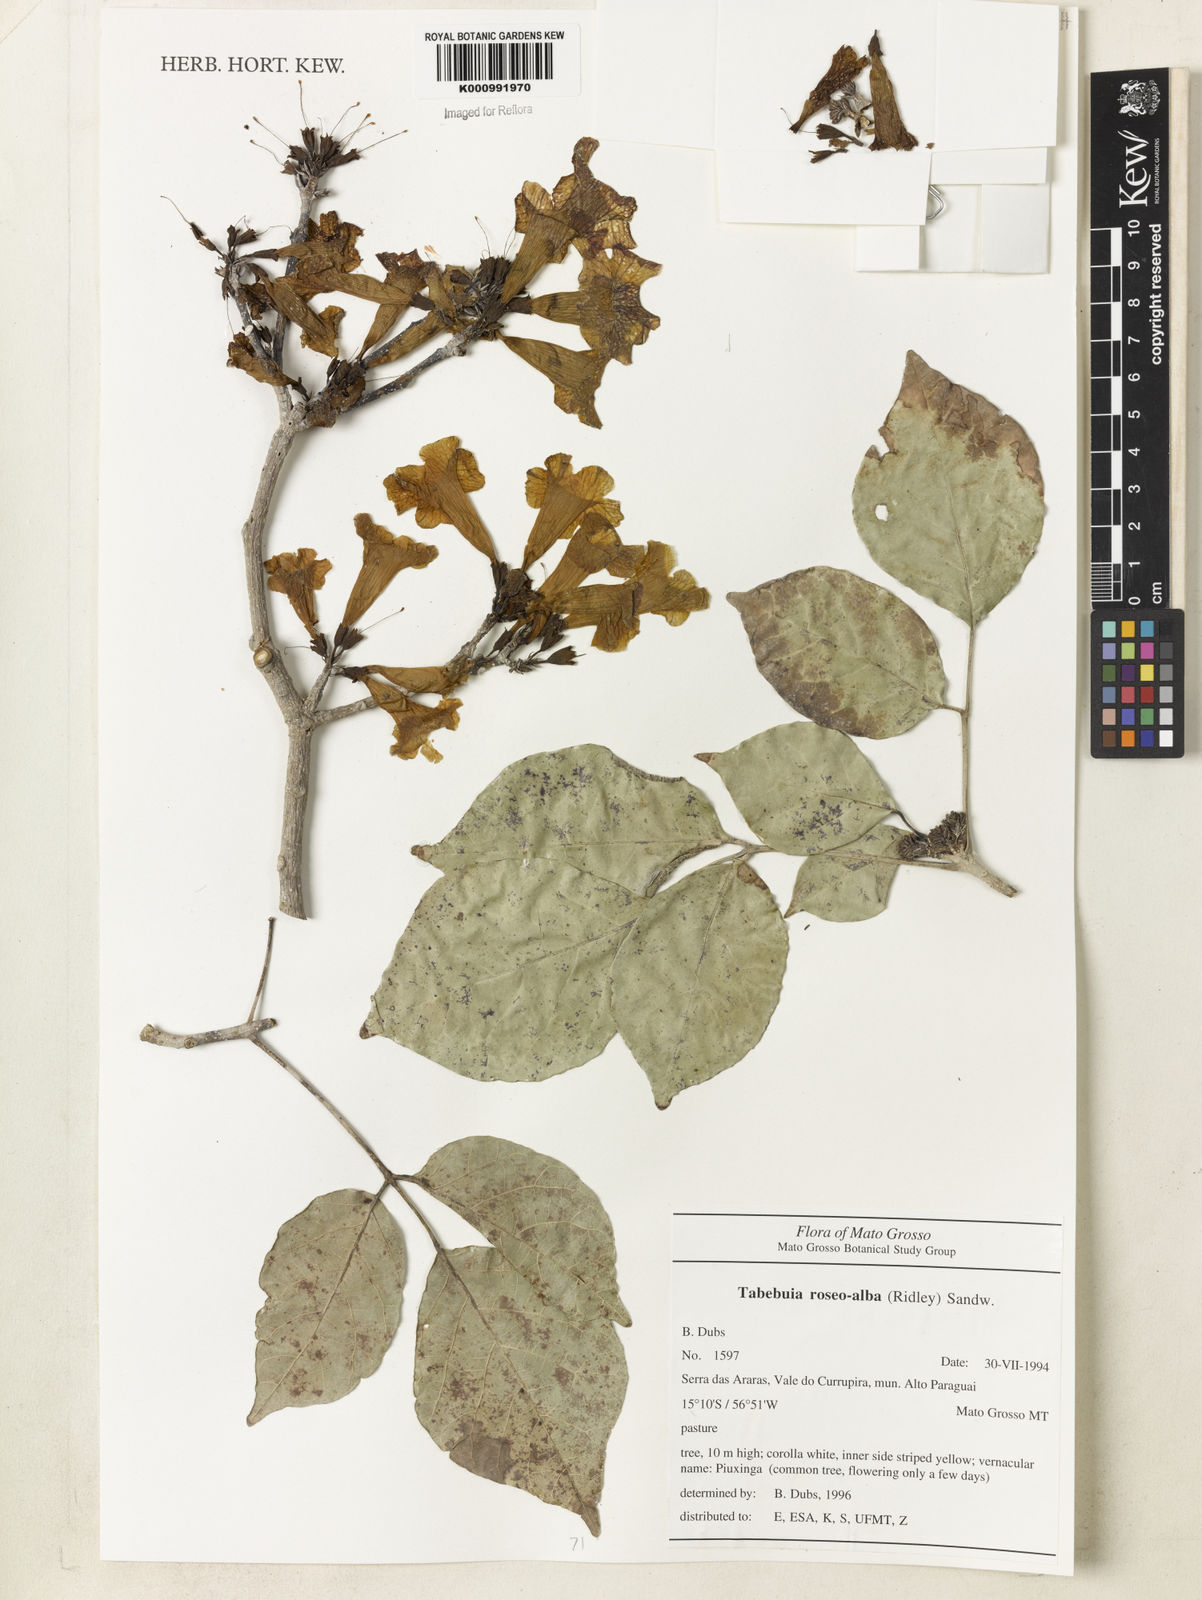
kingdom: Plantae
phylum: Tracheophyta
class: Magnoliopsida
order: Lamiales
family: Bignoniaceae
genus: Tabebuia
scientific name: Tabebuia roseoalba
